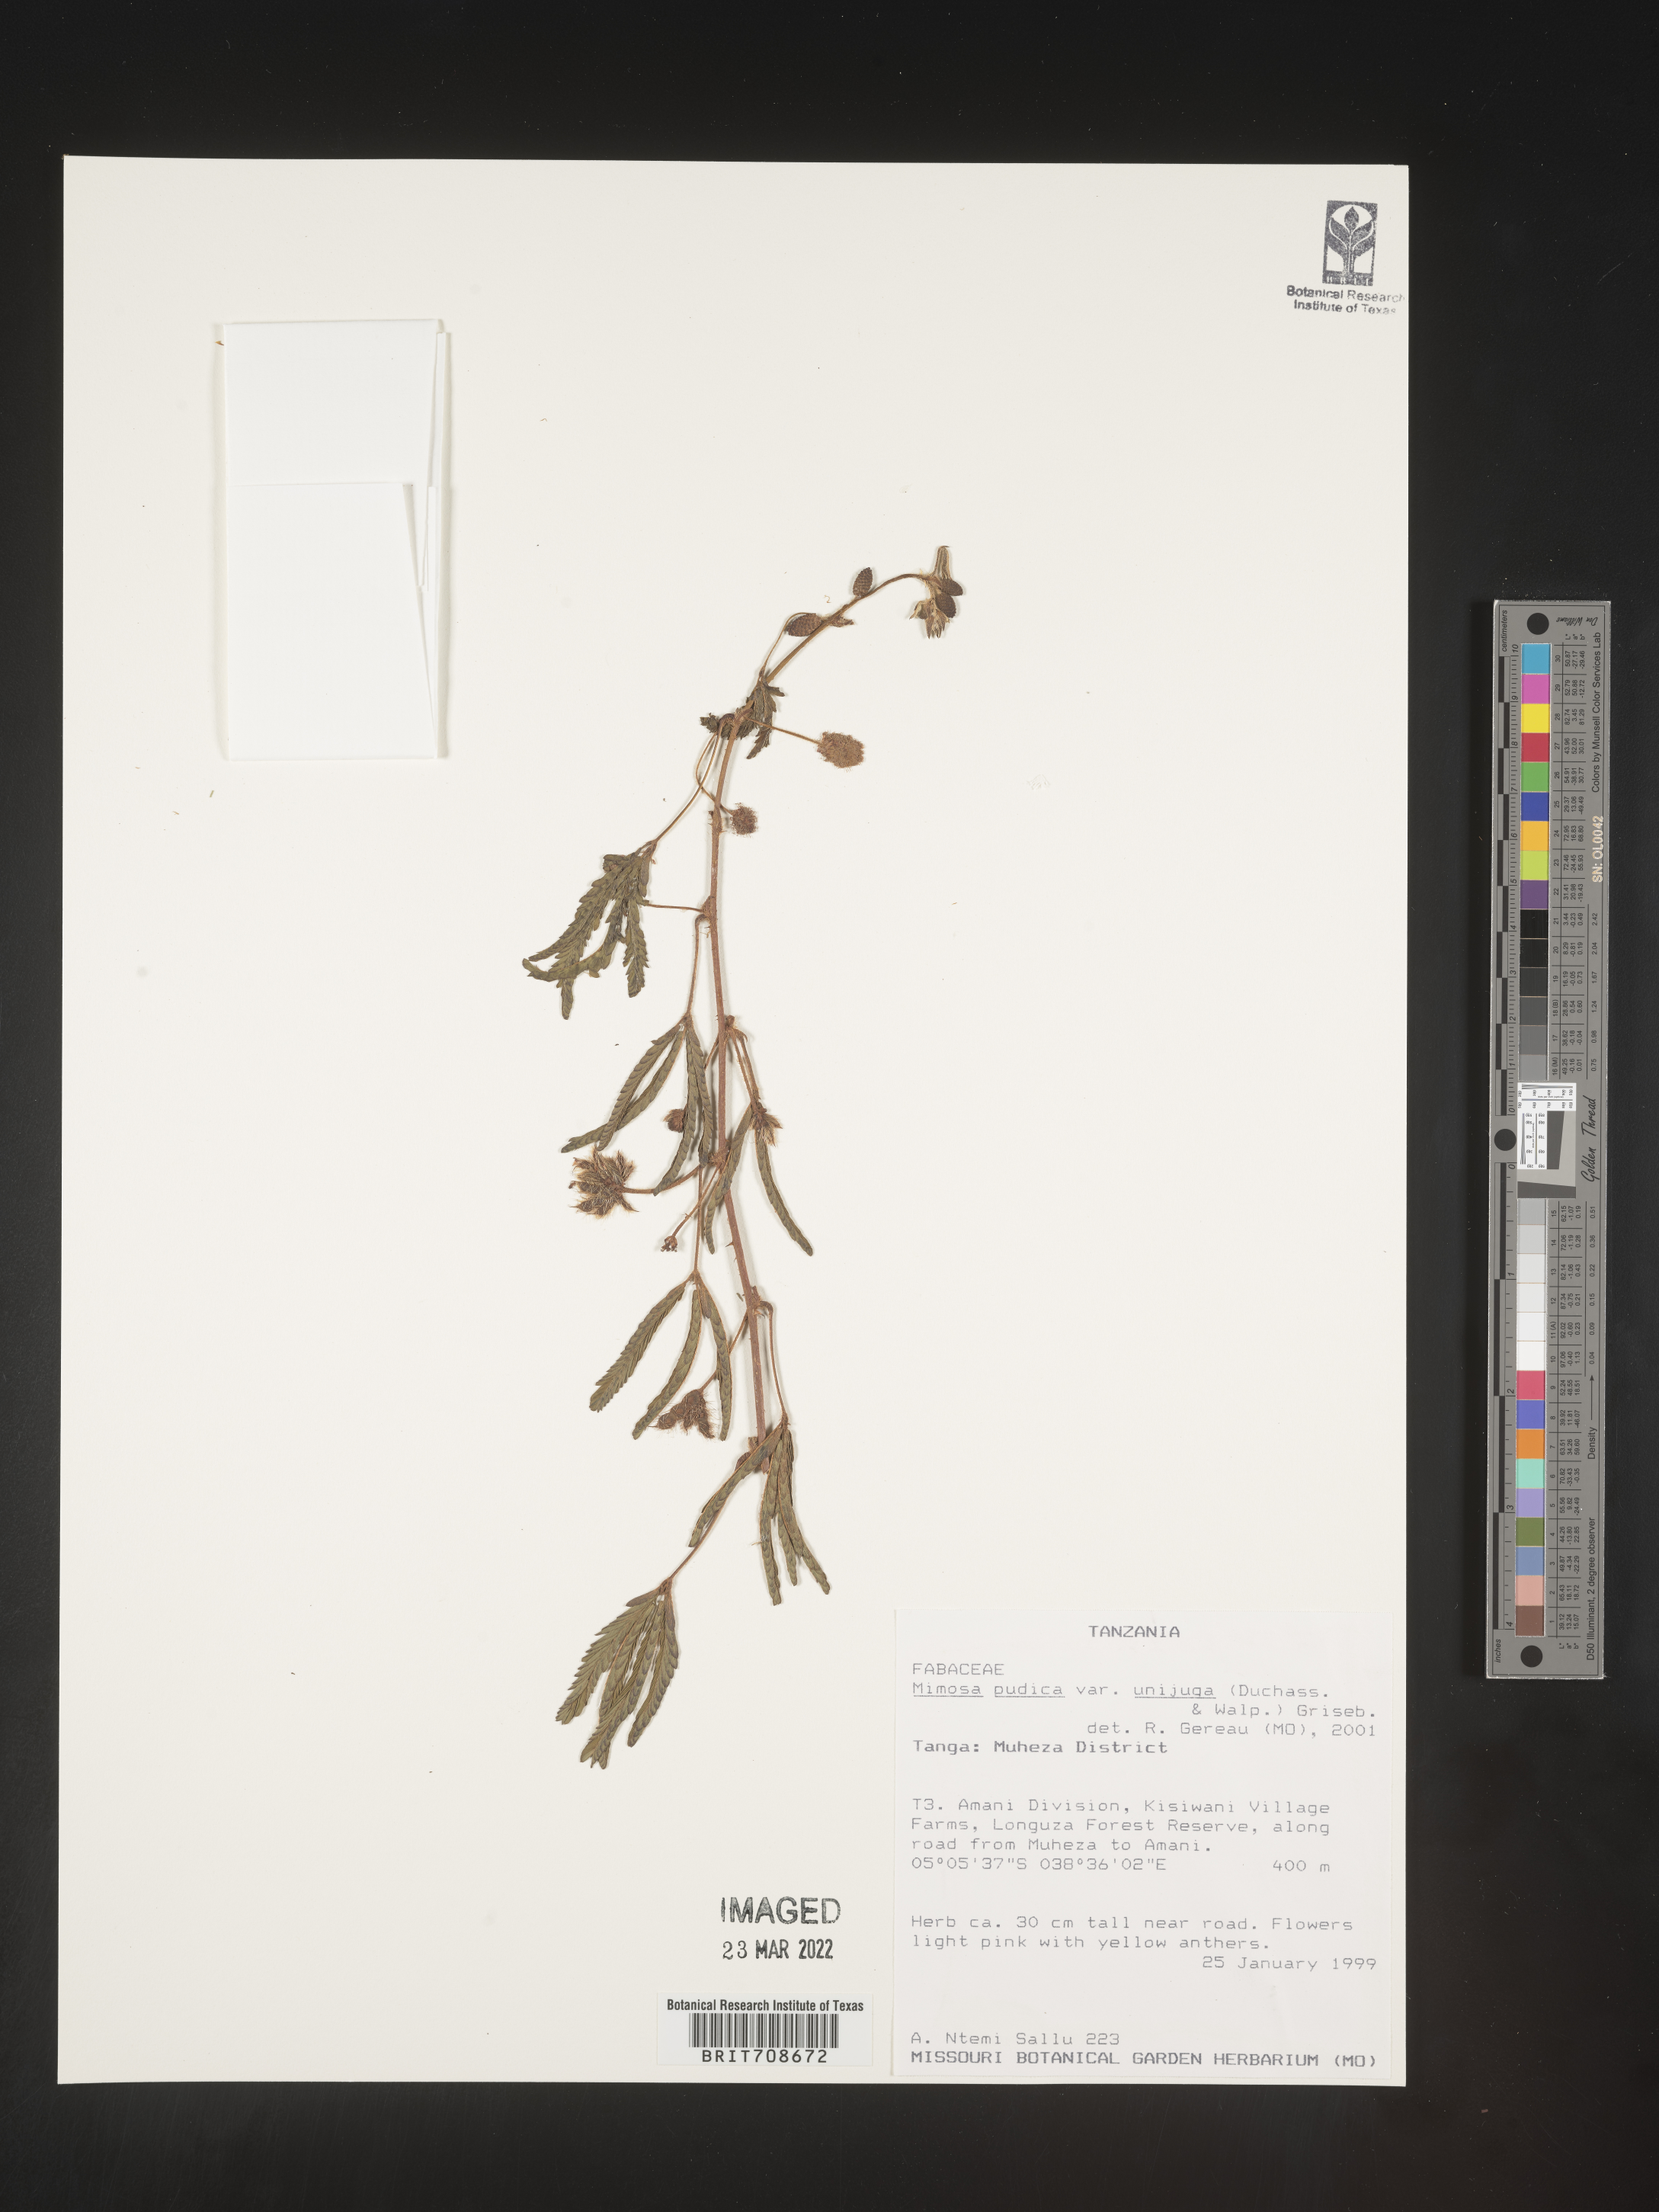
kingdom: Plantae
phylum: Tracheophyta
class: Magnoliopsida
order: Fabales
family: Fabaceae
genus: Mimosa
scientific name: Mimosa
